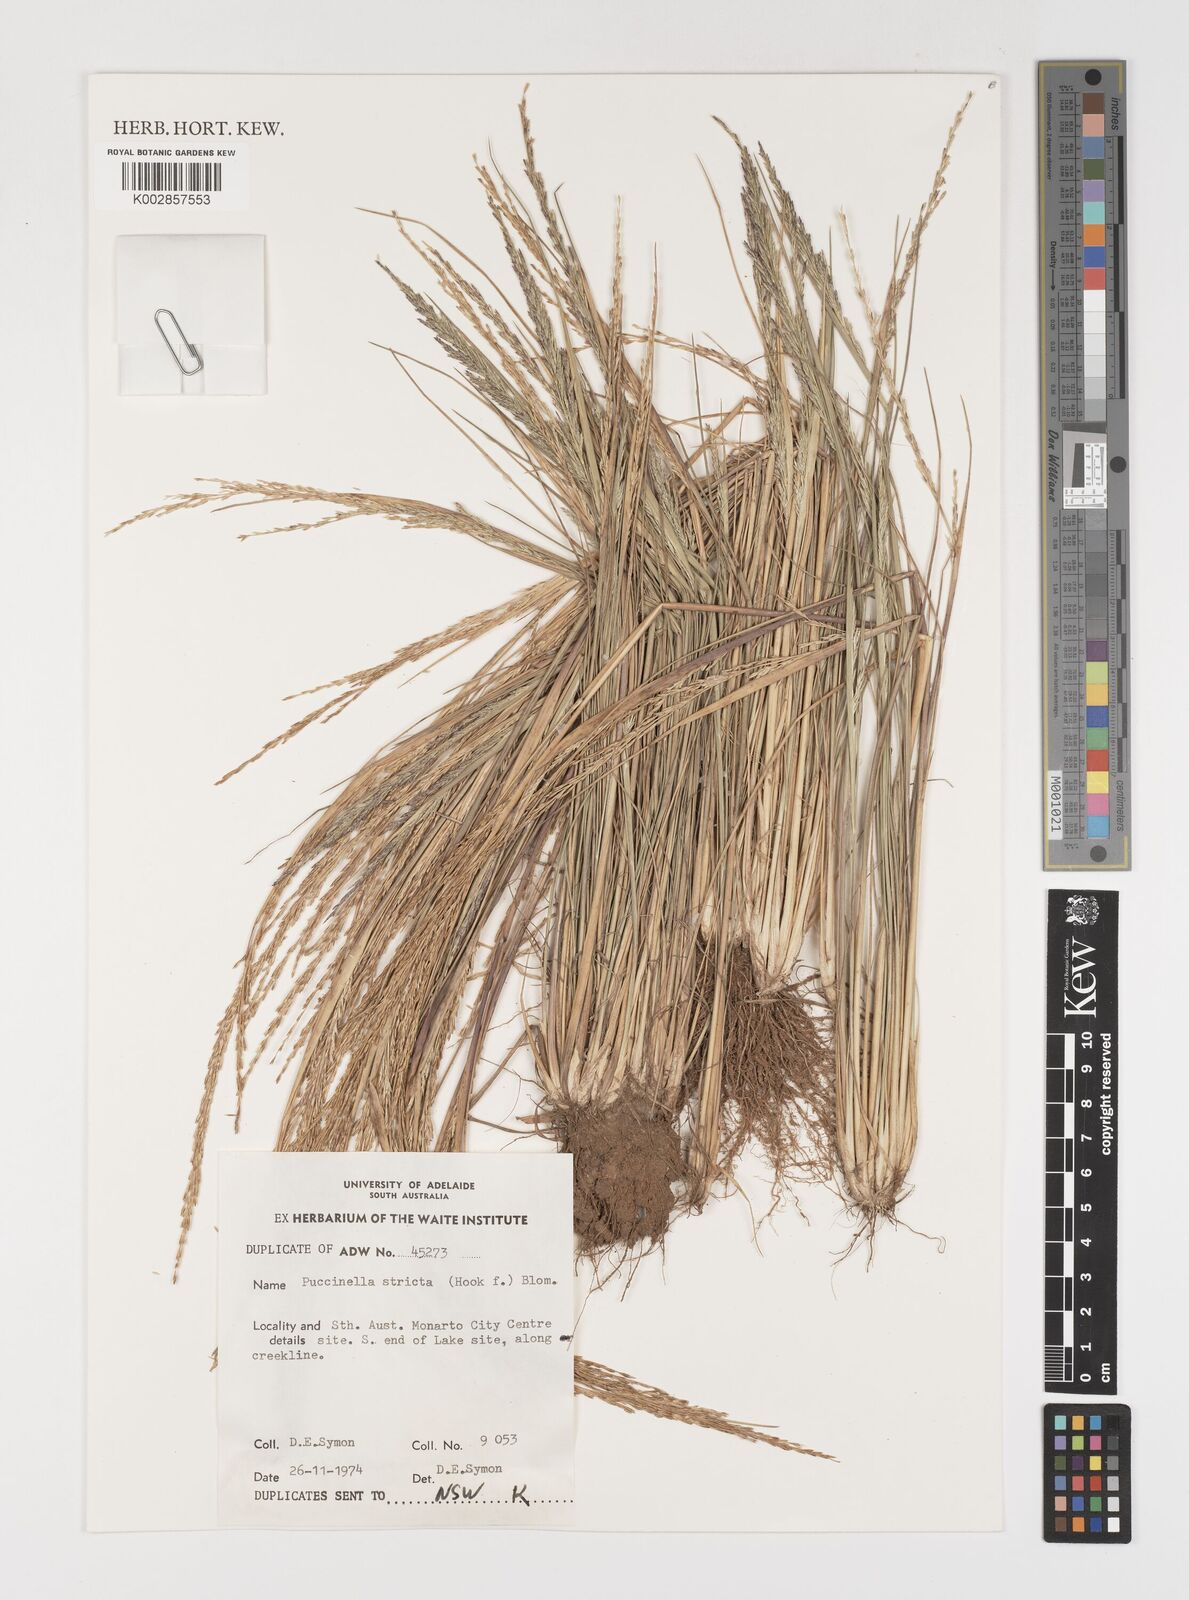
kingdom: Plantae
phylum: Tracheophyta
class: Liliopsida
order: Poales
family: Poaceae
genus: Puccinellia
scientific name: Puccinellia stricta
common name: Australian saltmarsh grass
